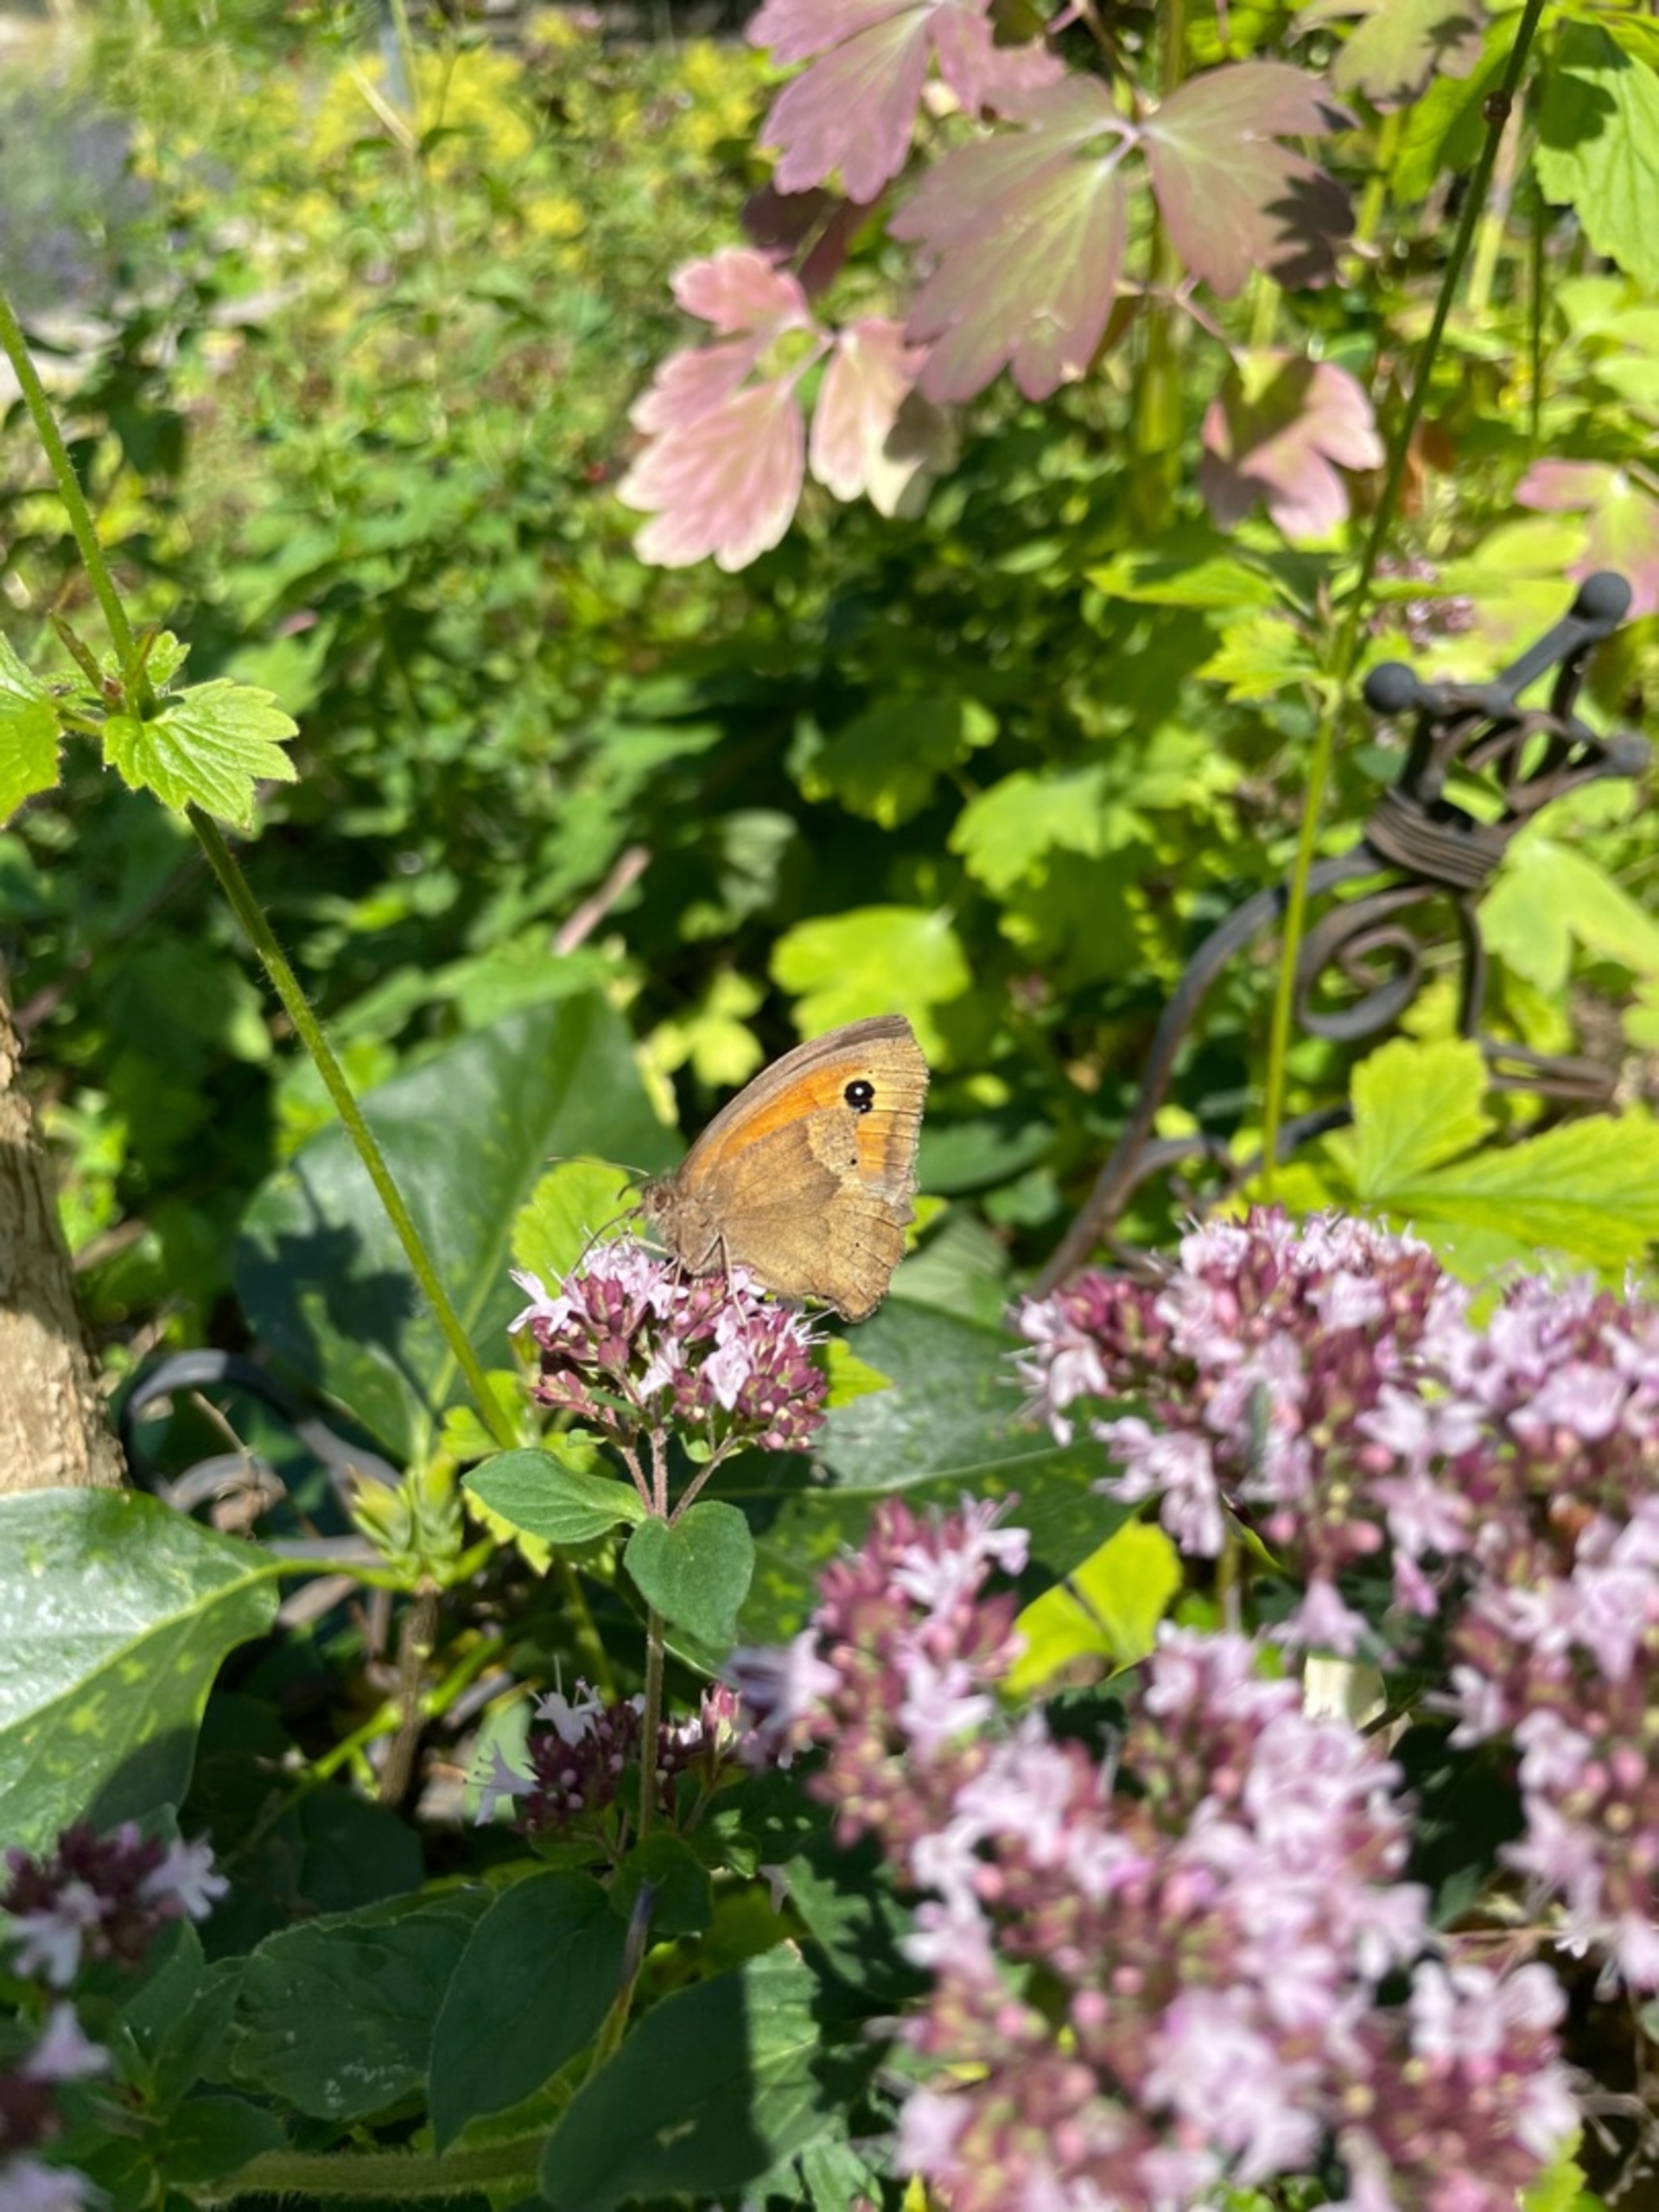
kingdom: Animalia
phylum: Arthropoda
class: Insecta
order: Lepidoptera
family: Nymphalidae
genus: Maniola
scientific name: Maniola jurtina
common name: Græsrandøje
